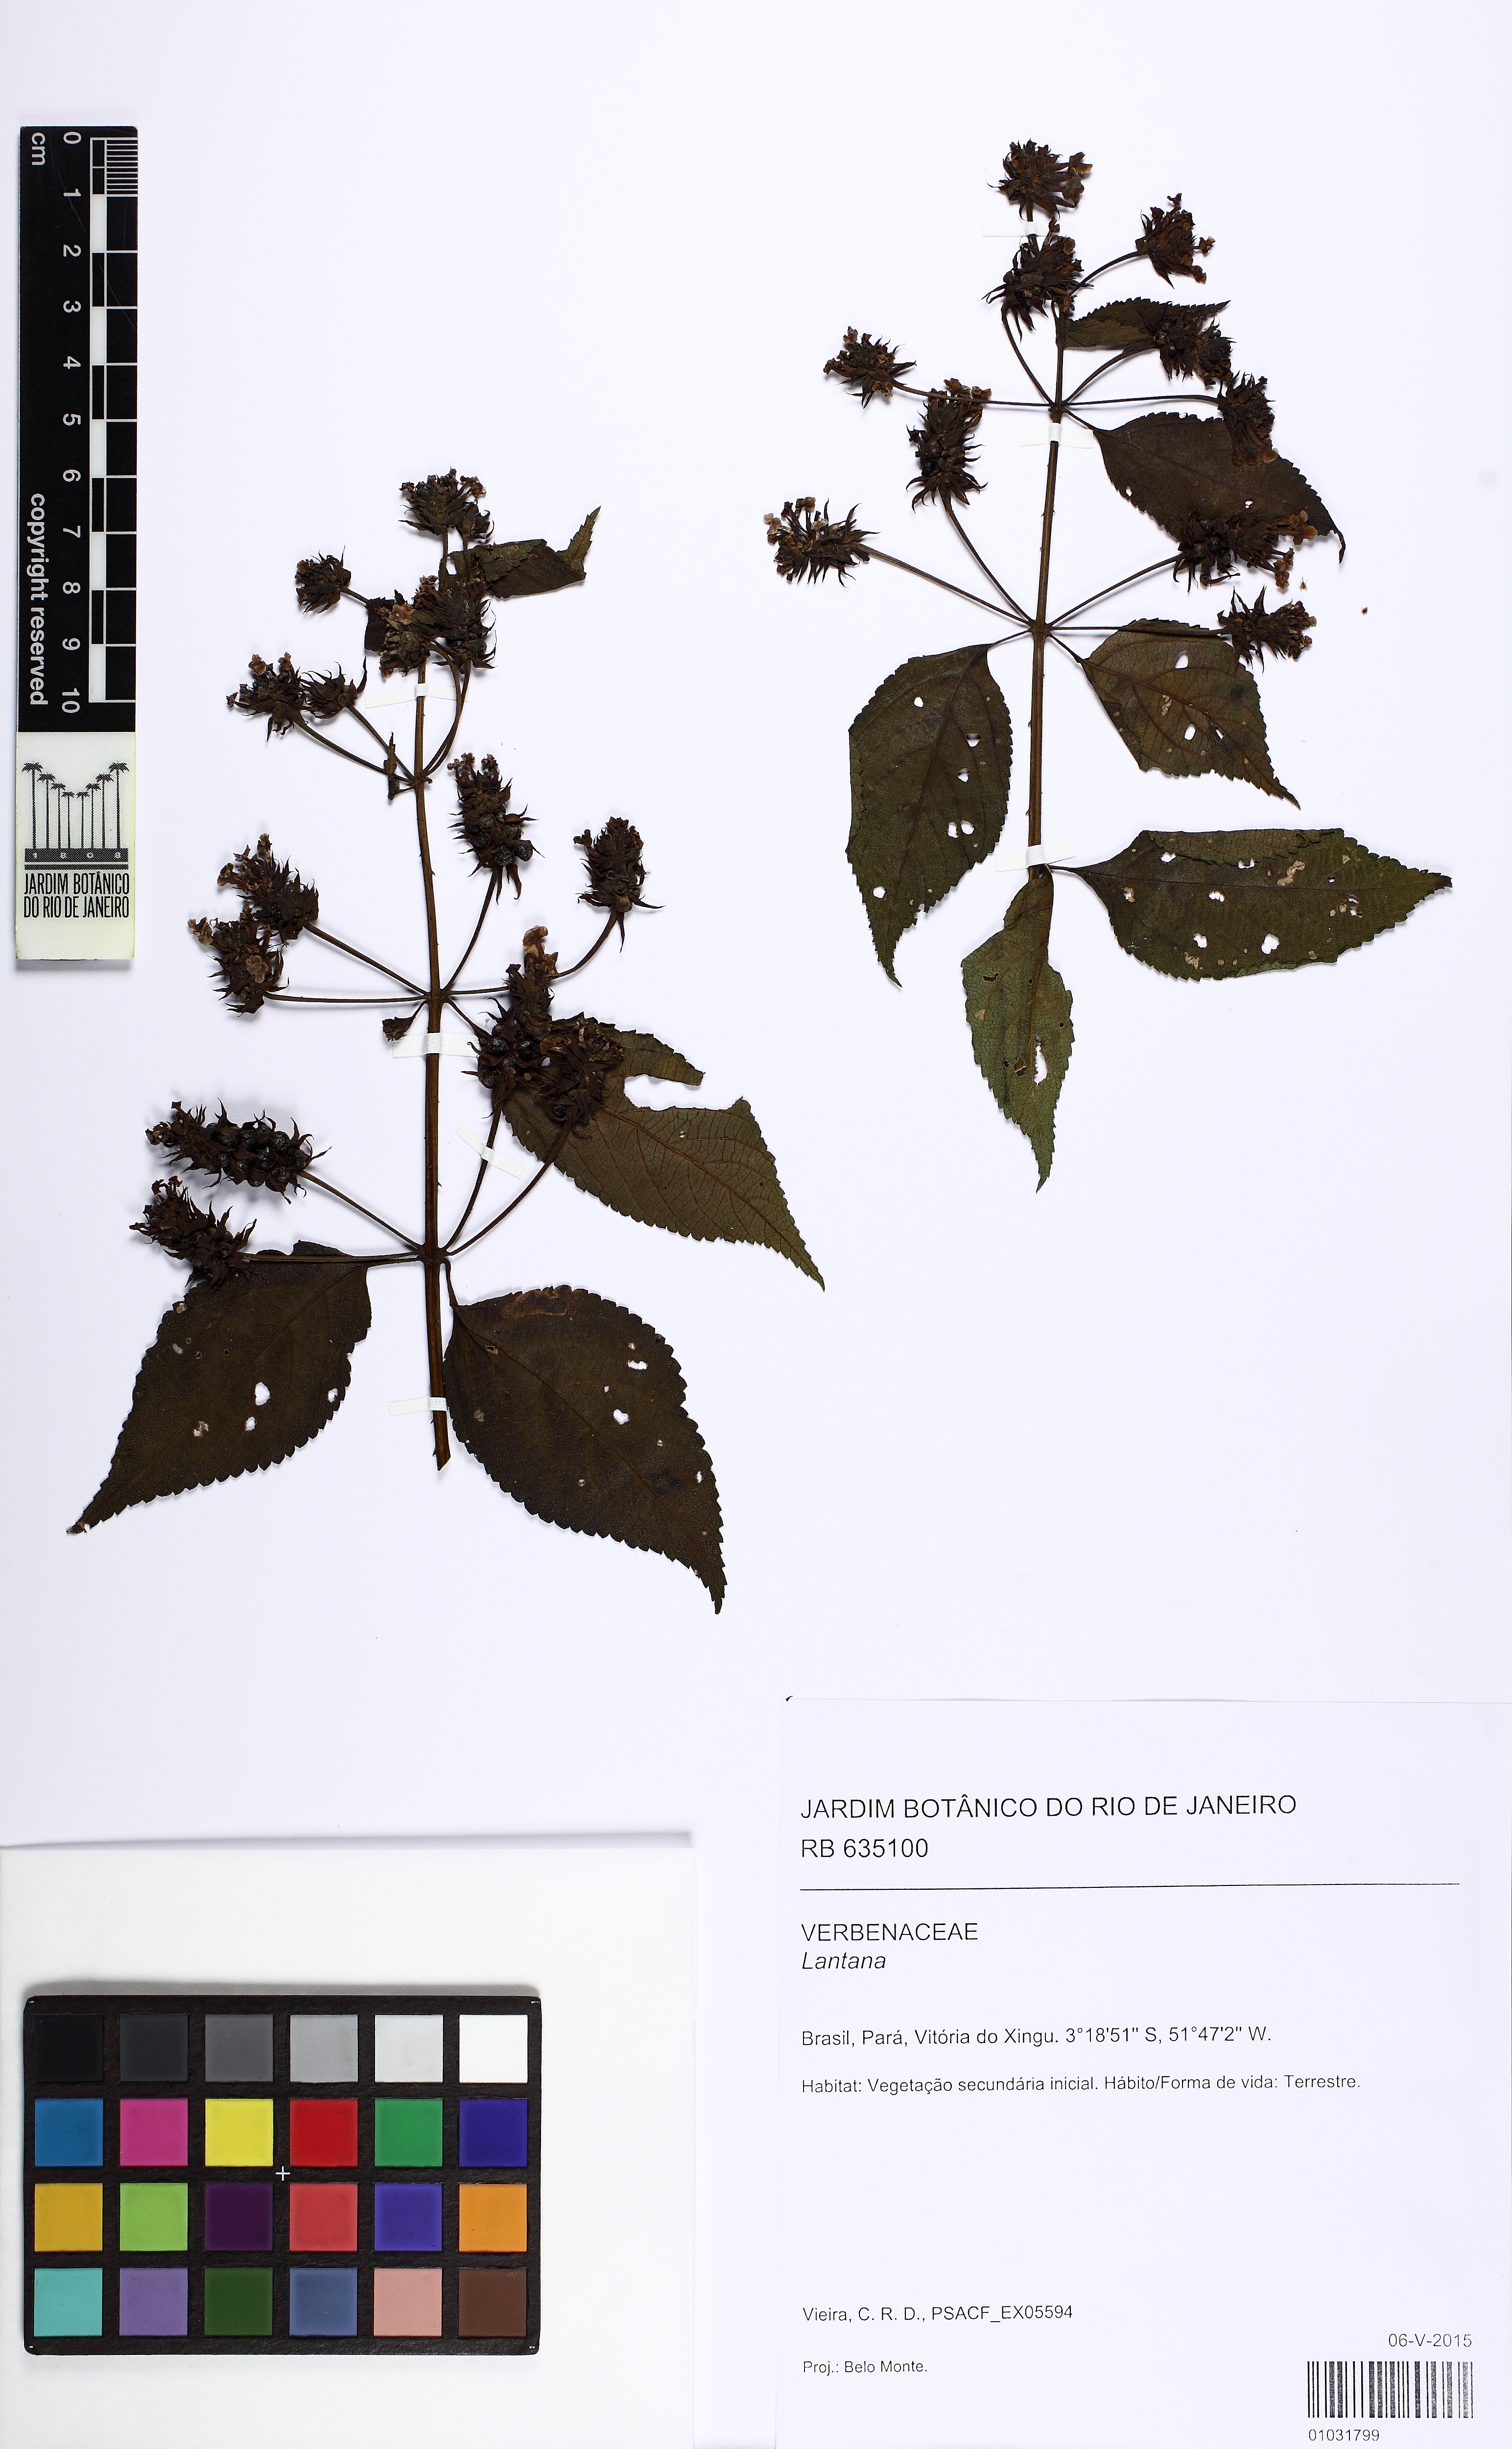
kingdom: Plantae
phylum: Tracheophyta
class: Magnoliopsida
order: Lamiales
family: Verbenaceae
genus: Lantana
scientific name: Lantana
